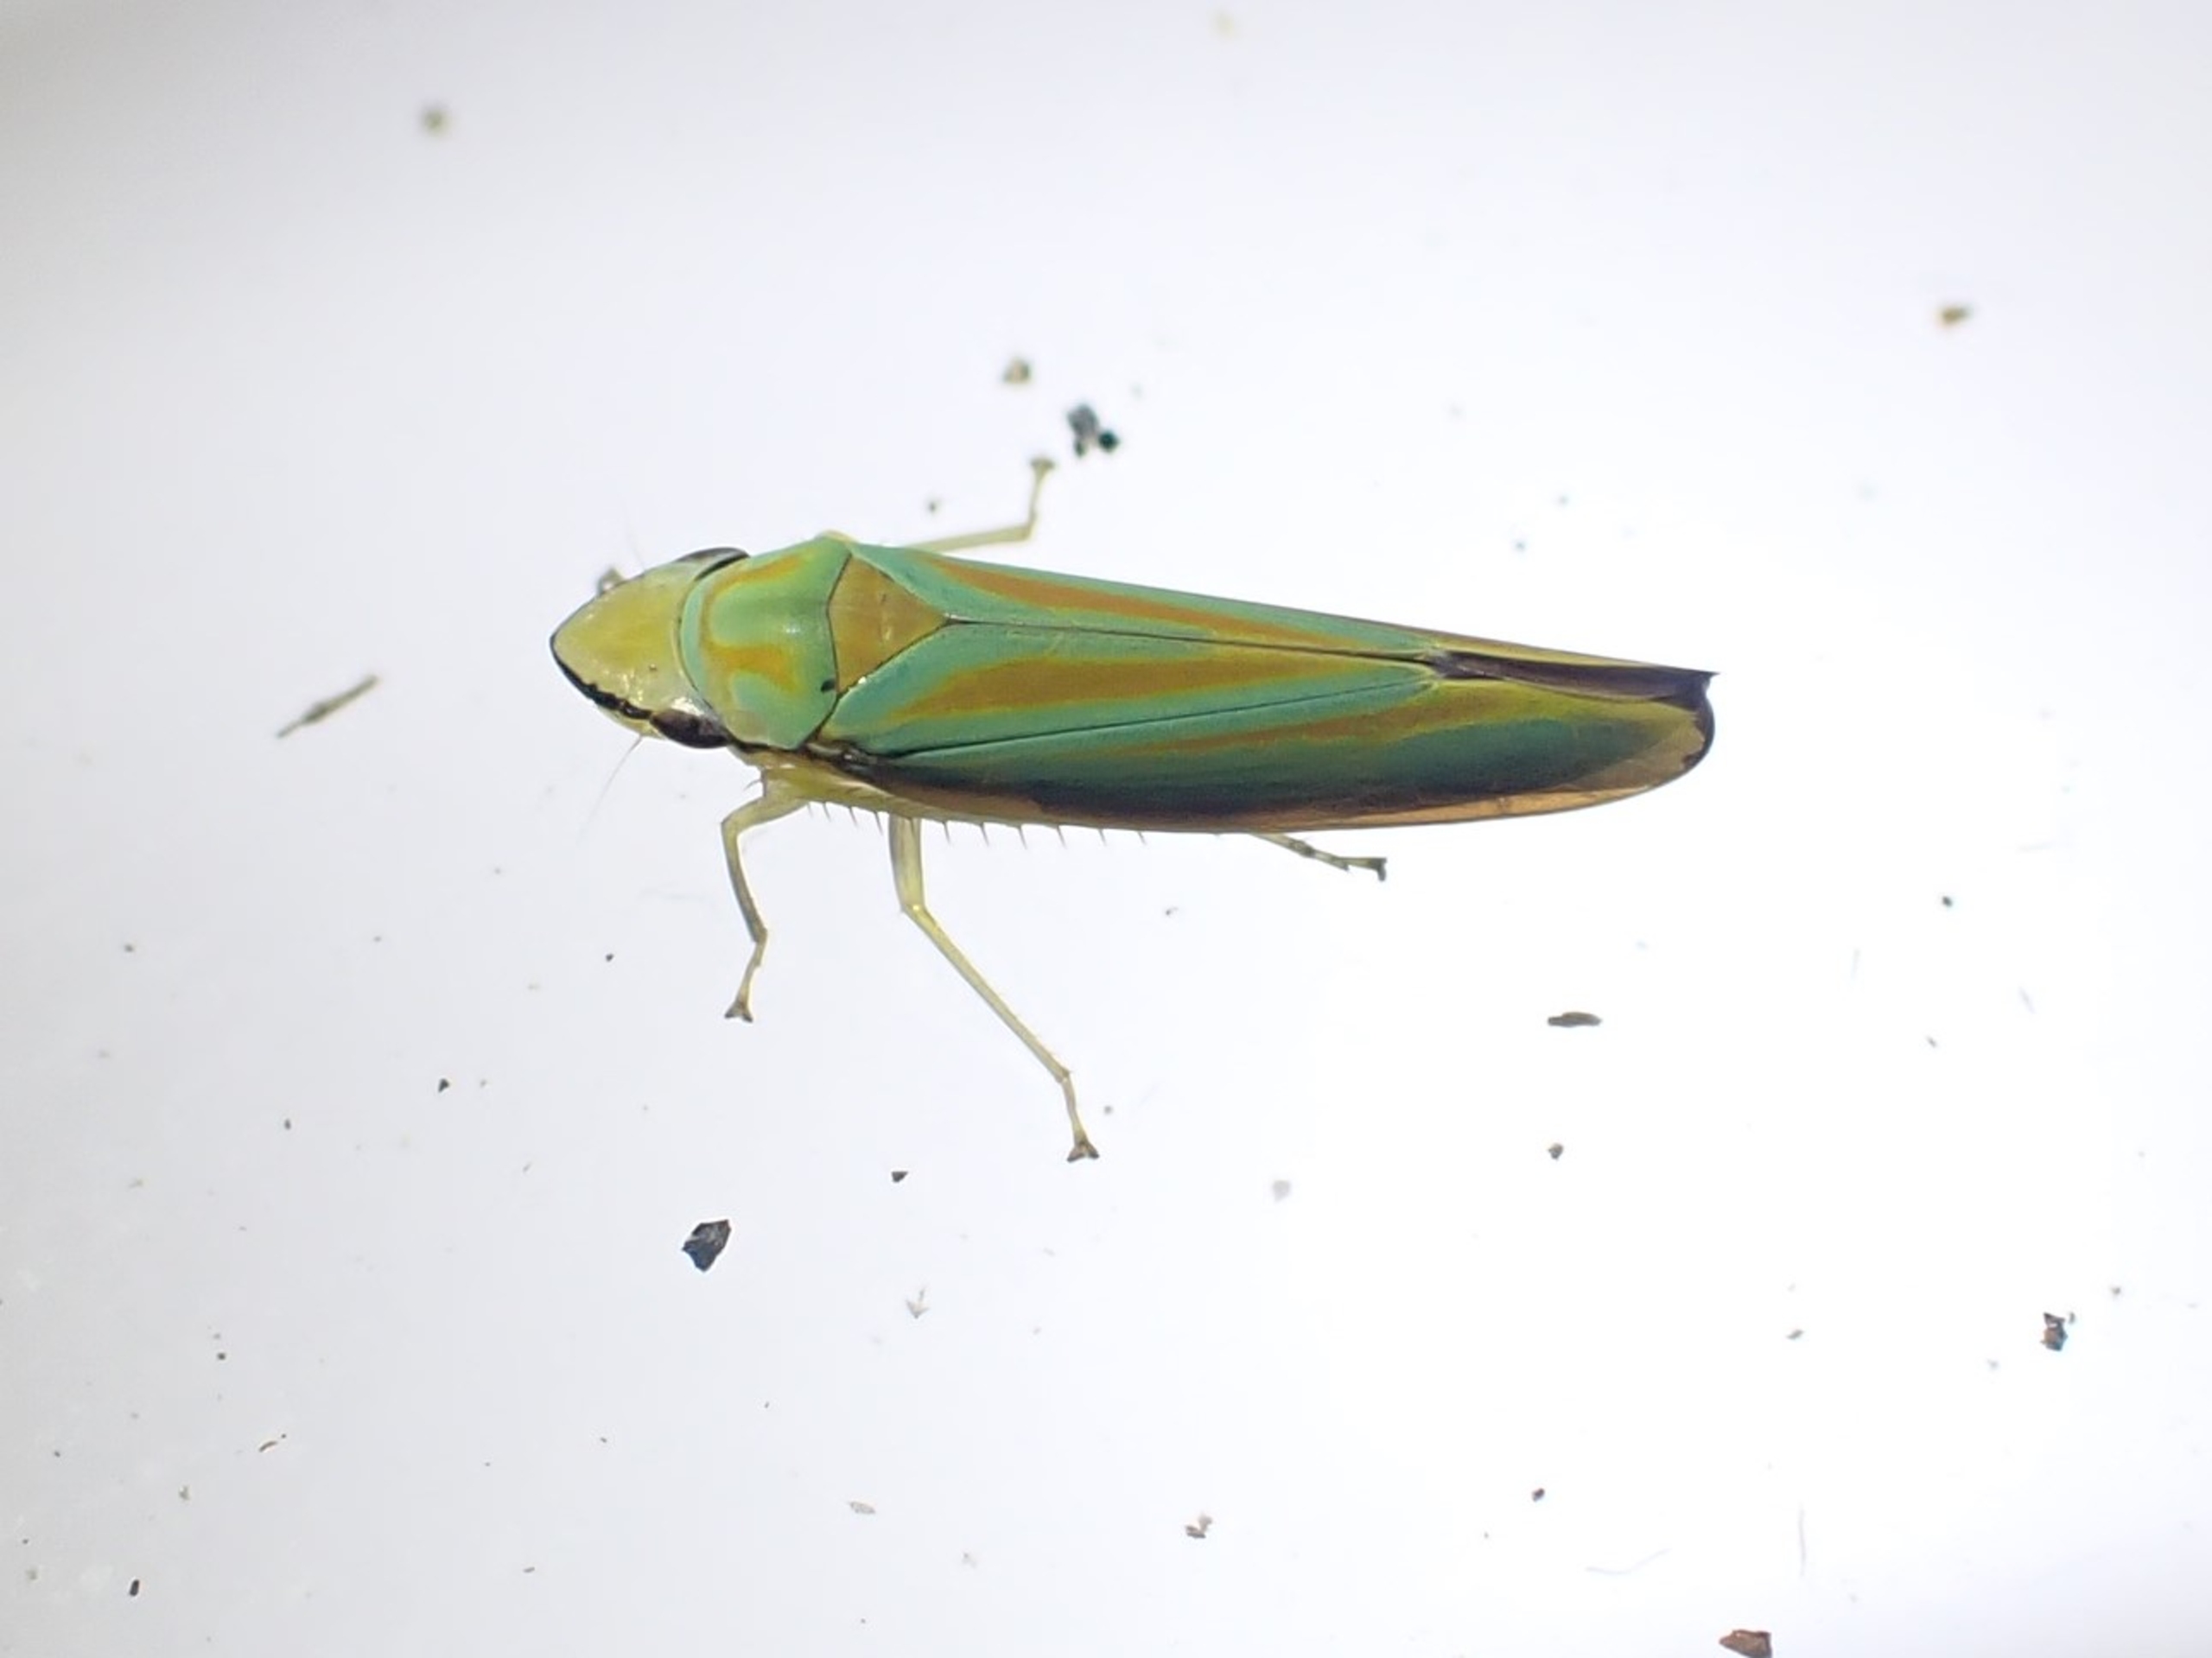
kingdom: Animalia
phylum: Arthropoda
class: Insecta
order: Hemiptera
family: Cicadellidae
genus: Graphocephala
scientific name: Graphocephala fennahi
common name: Rododendroncikade
